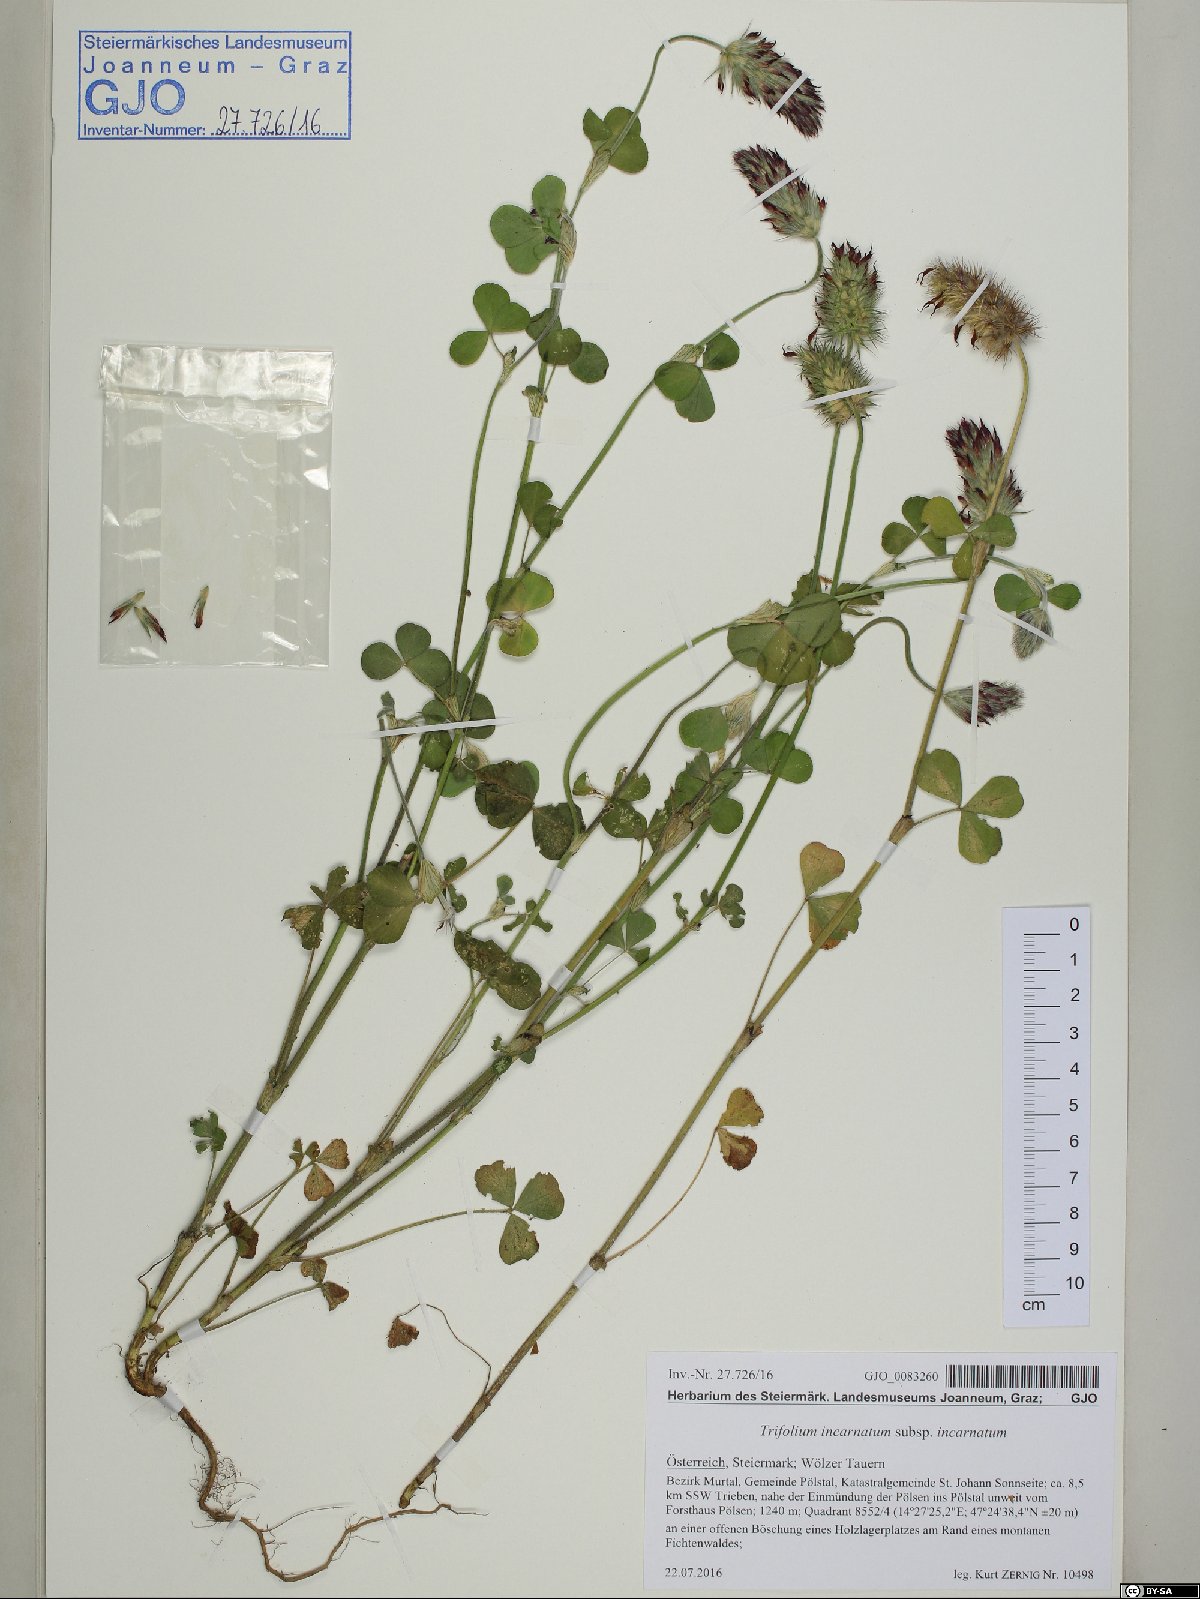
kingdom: Plantae
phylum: Tracheophyta
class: Magnoliopsida
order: Fabales
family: Fabaceae
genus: Trifolium
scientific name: Trifolium incarnatum
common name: Crimson clover
